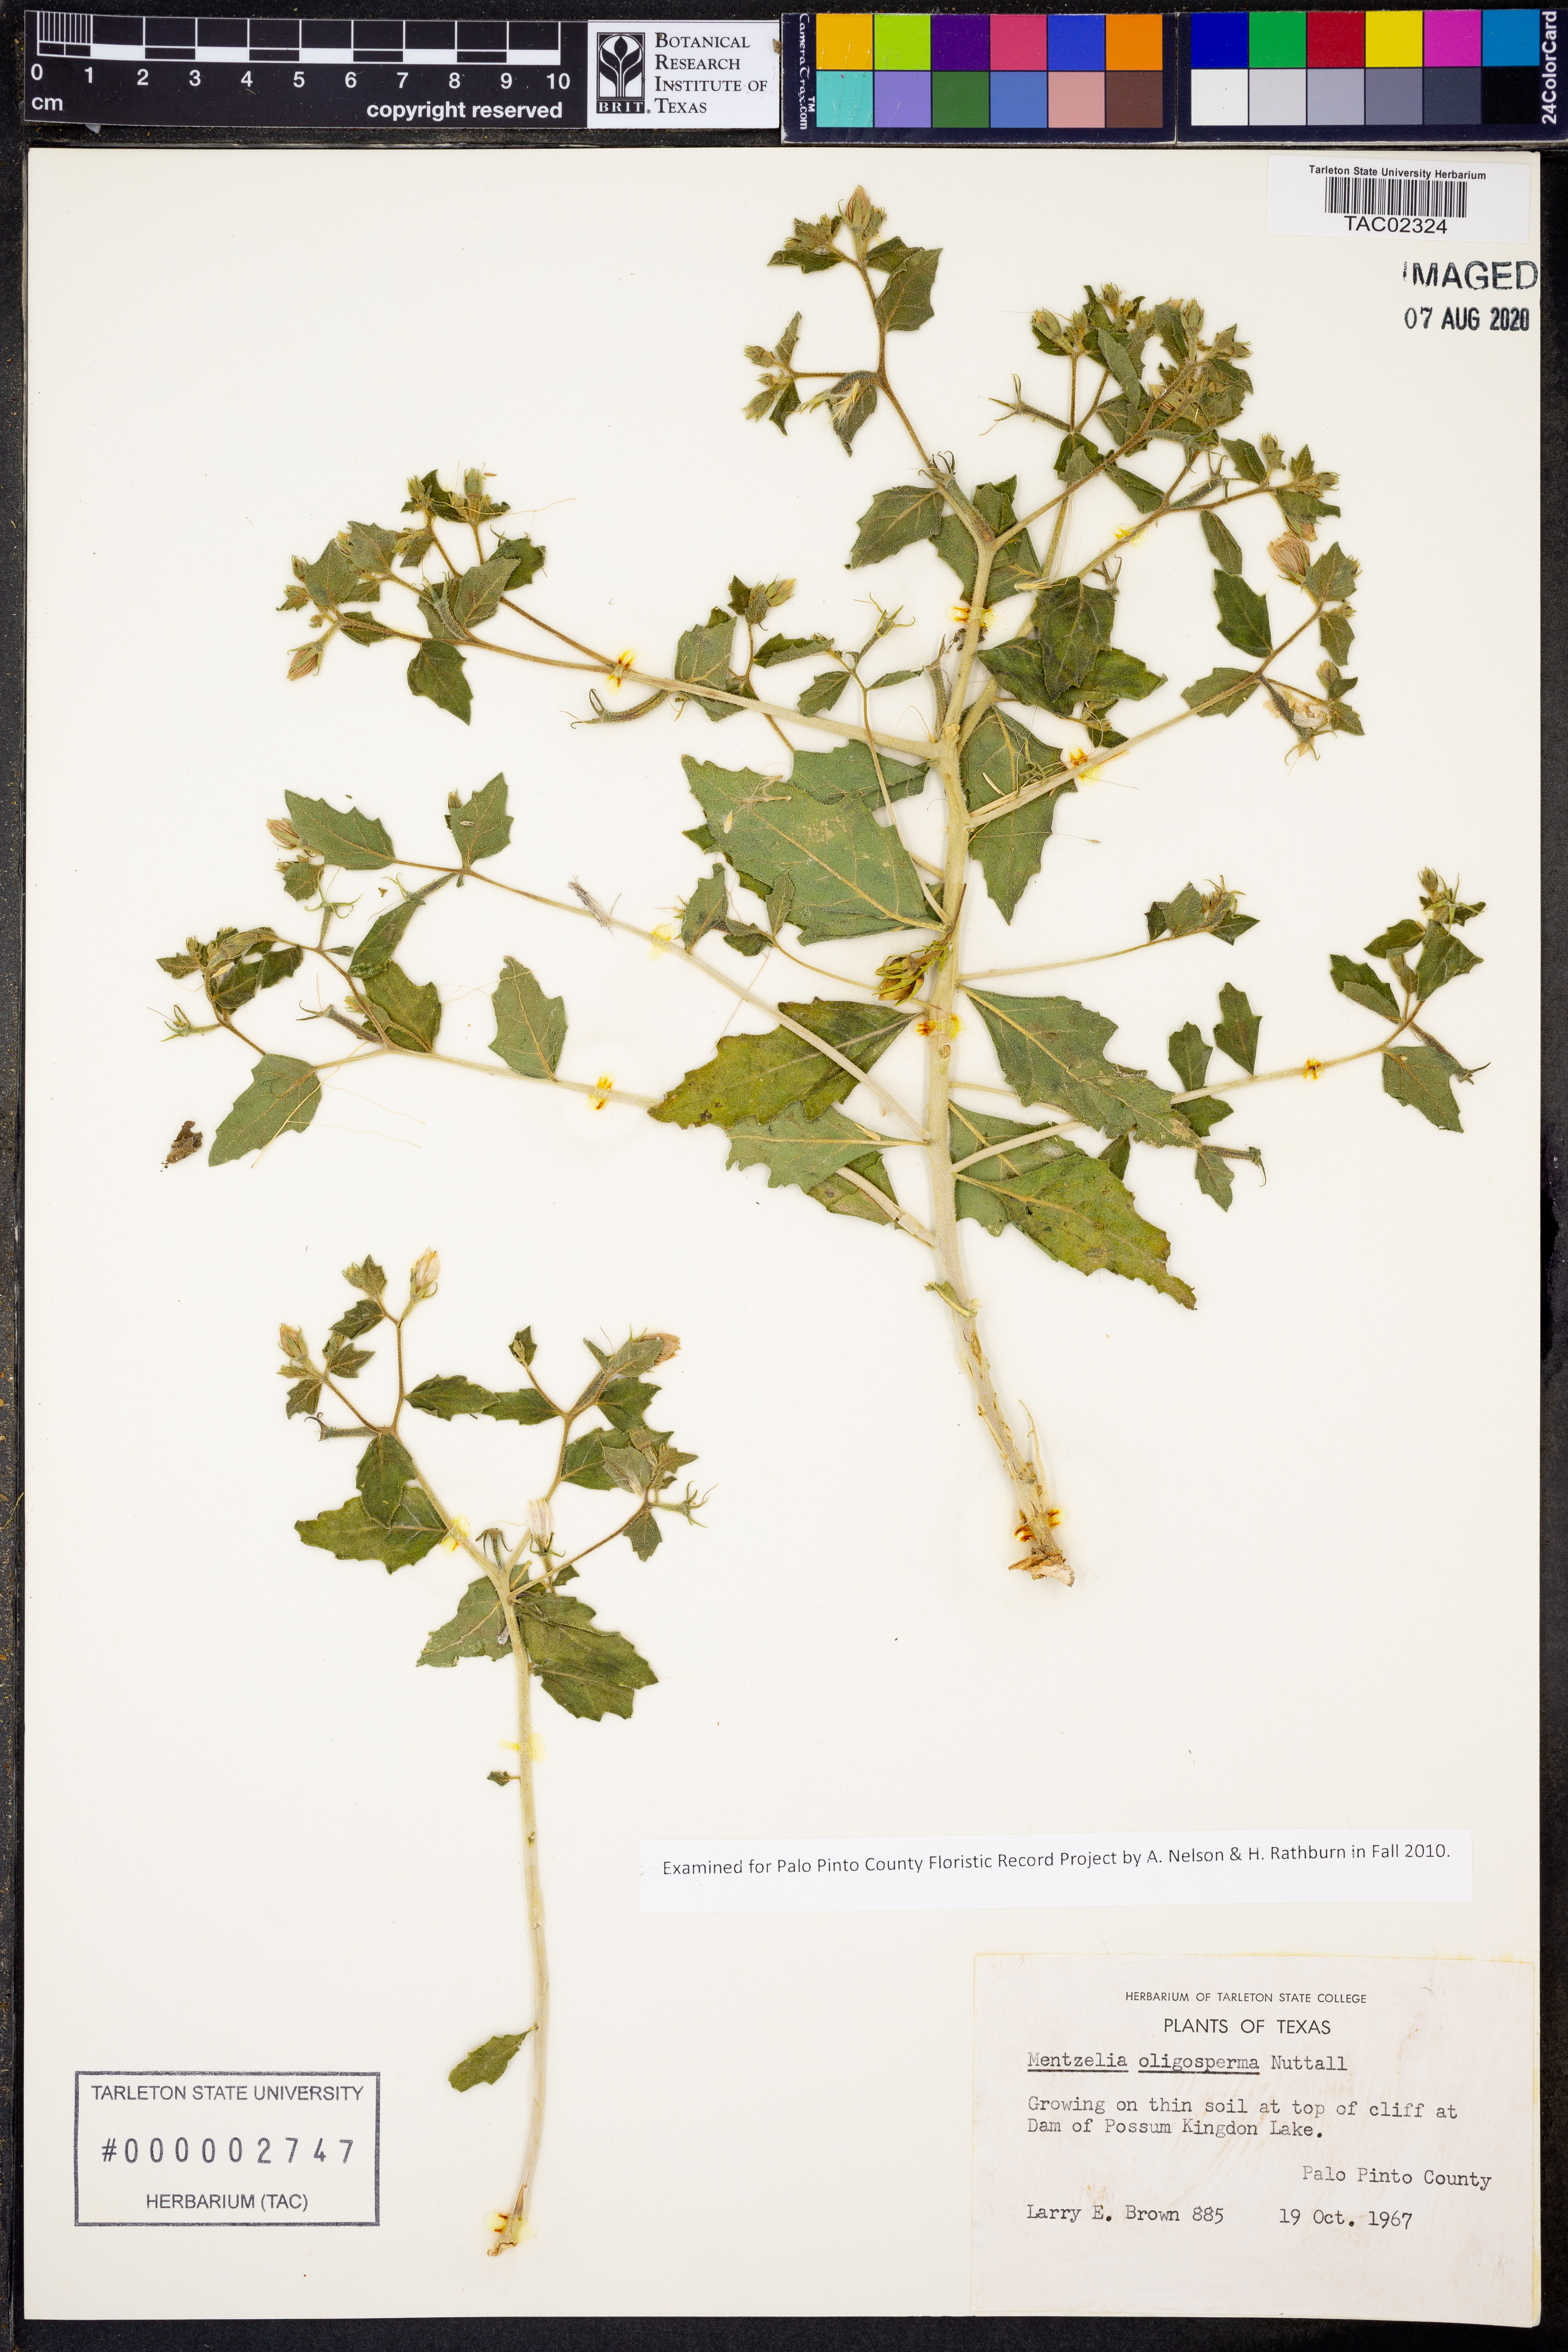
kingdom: Plantae
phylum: Tracheophyta
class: Magnoliopsida
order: Cornales
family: Loasaceae
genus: Mentzelia
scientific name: Mentzelia oligosperma
